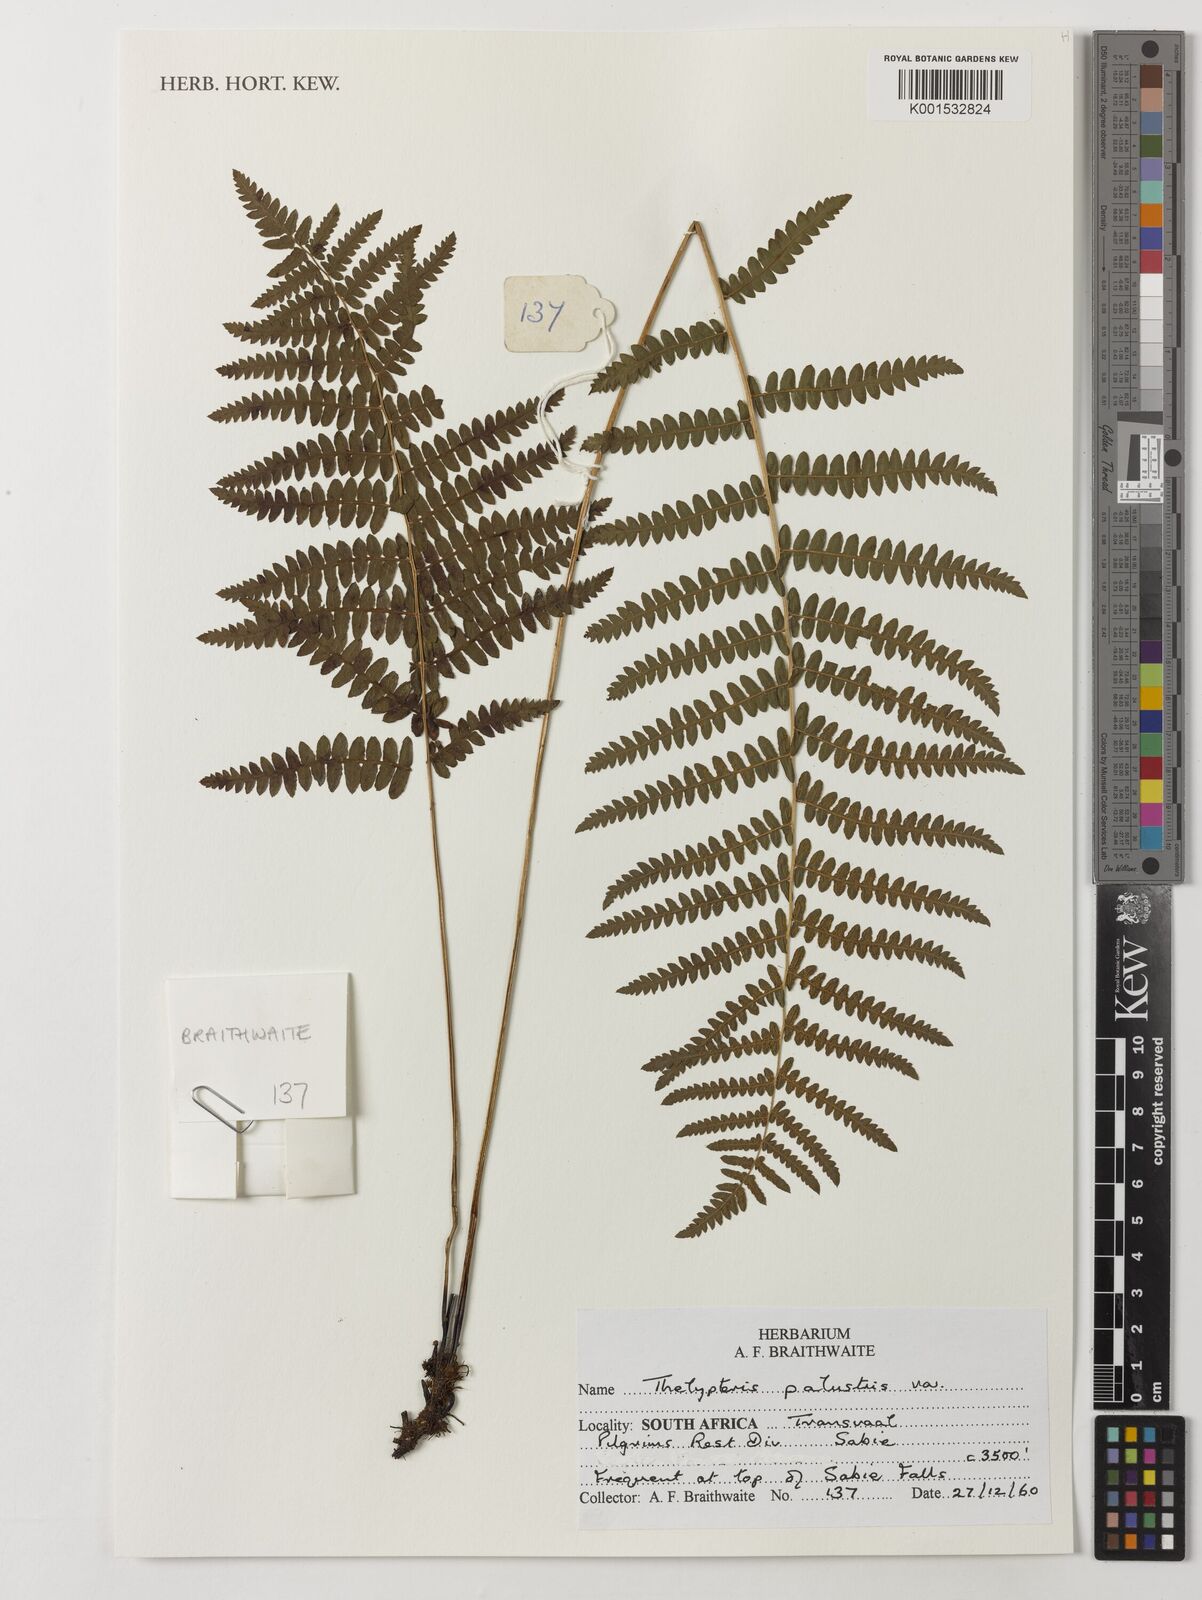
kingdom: Plantae
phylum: Tracheophyta
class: Polypodiopsida
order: Polypodiales
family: Thelypteridaceae
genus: Thelypteris
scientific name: Thelypteris palustris
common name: Marsh fern
